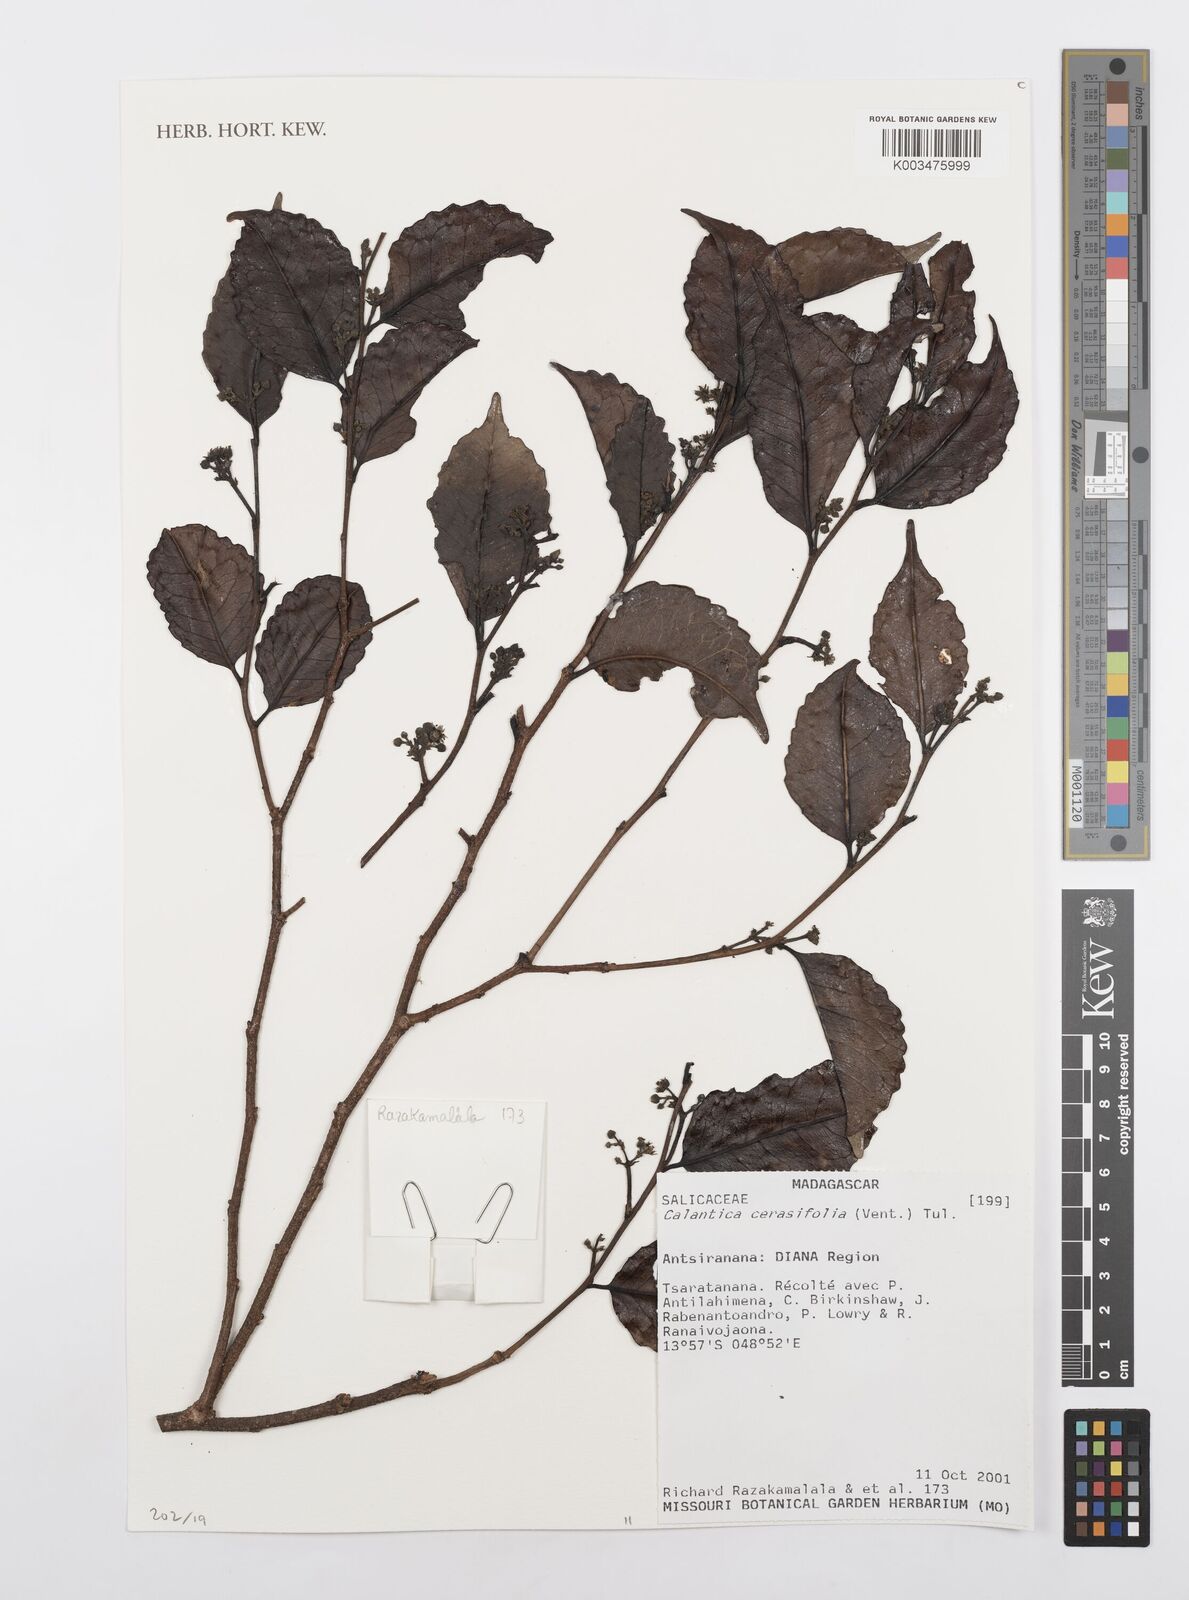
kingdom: Plantae
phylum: Tracheophyta
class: Magnoliopsida
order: Malpighiales
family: Salicaceae
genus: Calantica
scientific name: Calantica cerasifolia
